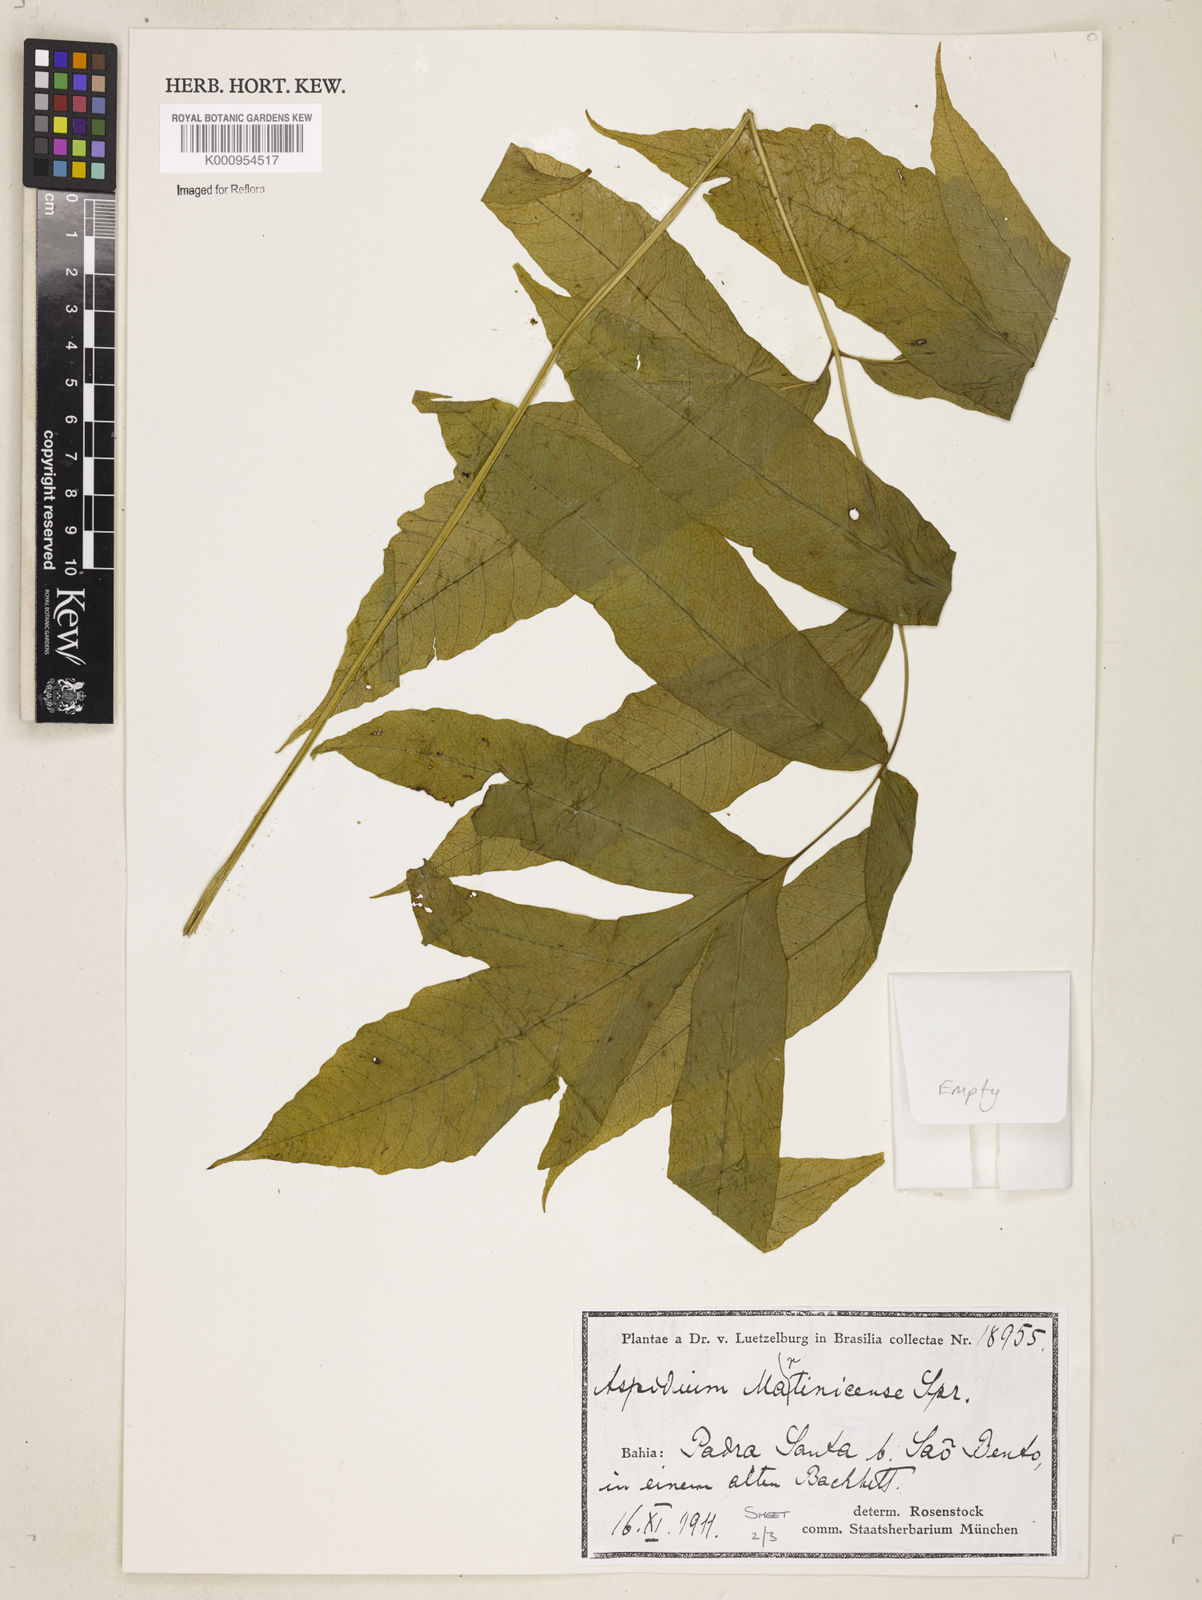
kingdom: Plantae
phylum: Tracheophyta
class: Polypodiopsida
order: Polypodiales
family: Tectariaceae
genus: Tectaria
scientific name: Tectaria incisa
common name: Incised halberd fern
